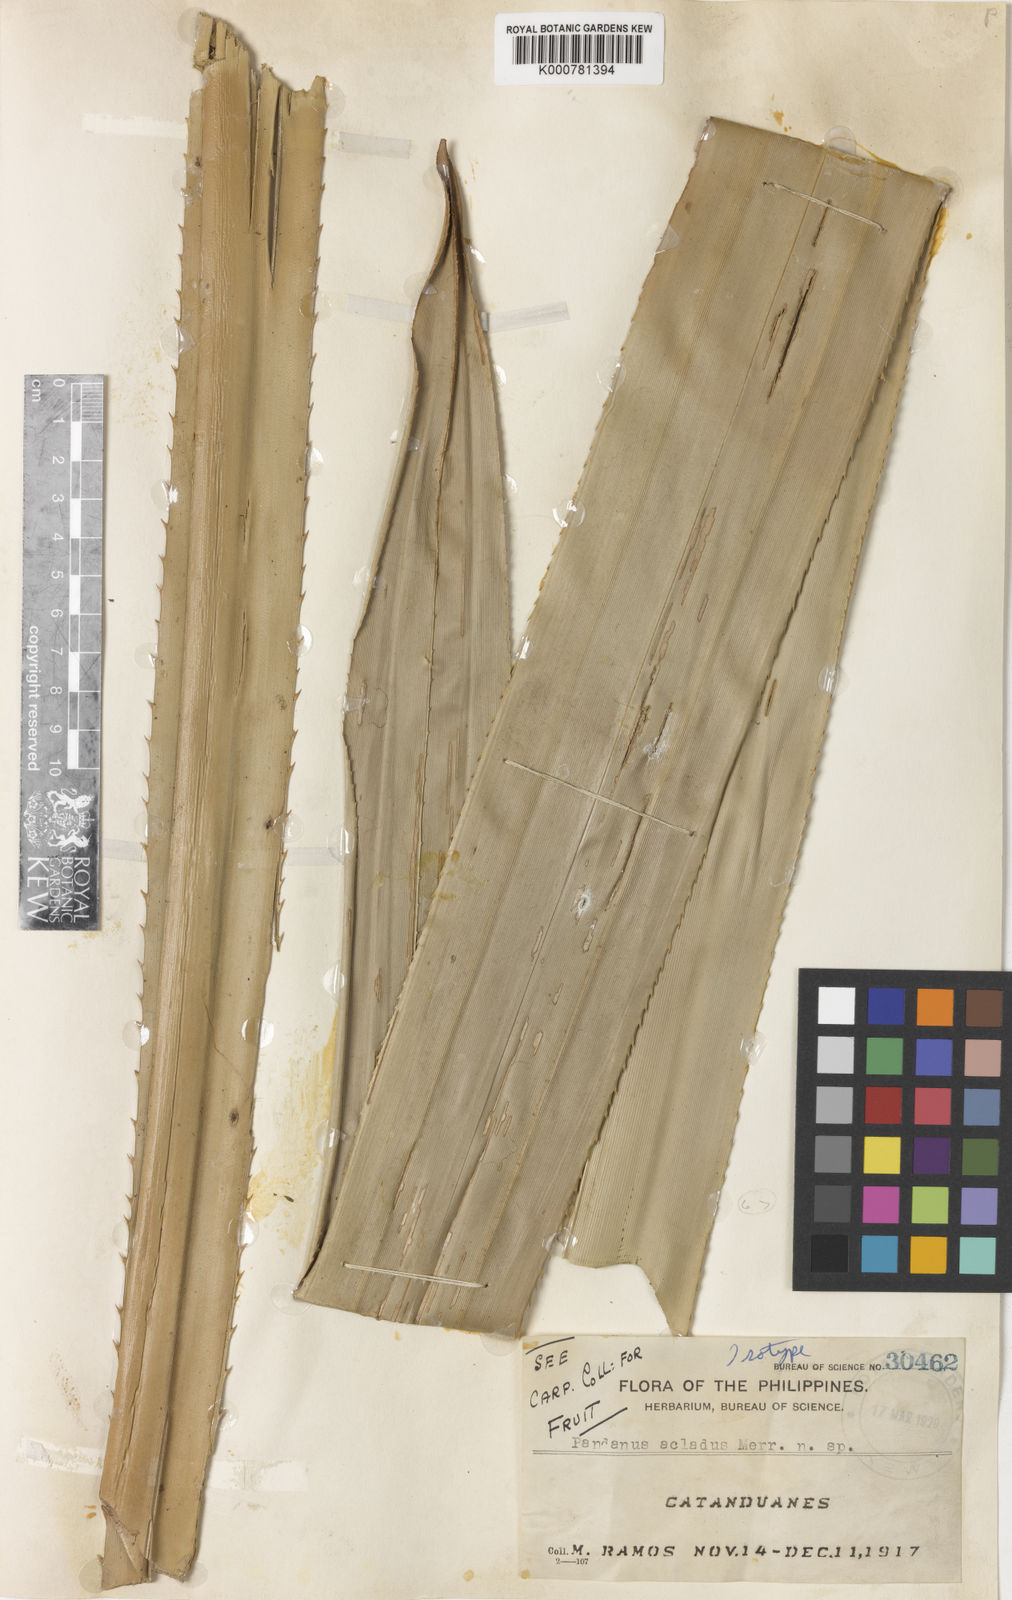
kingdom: Plantae
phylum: Tracheophyta
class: Liliopsida
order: Pandanales
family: Pandanaceae
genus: Pandanus
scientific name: Pandanus acladus
